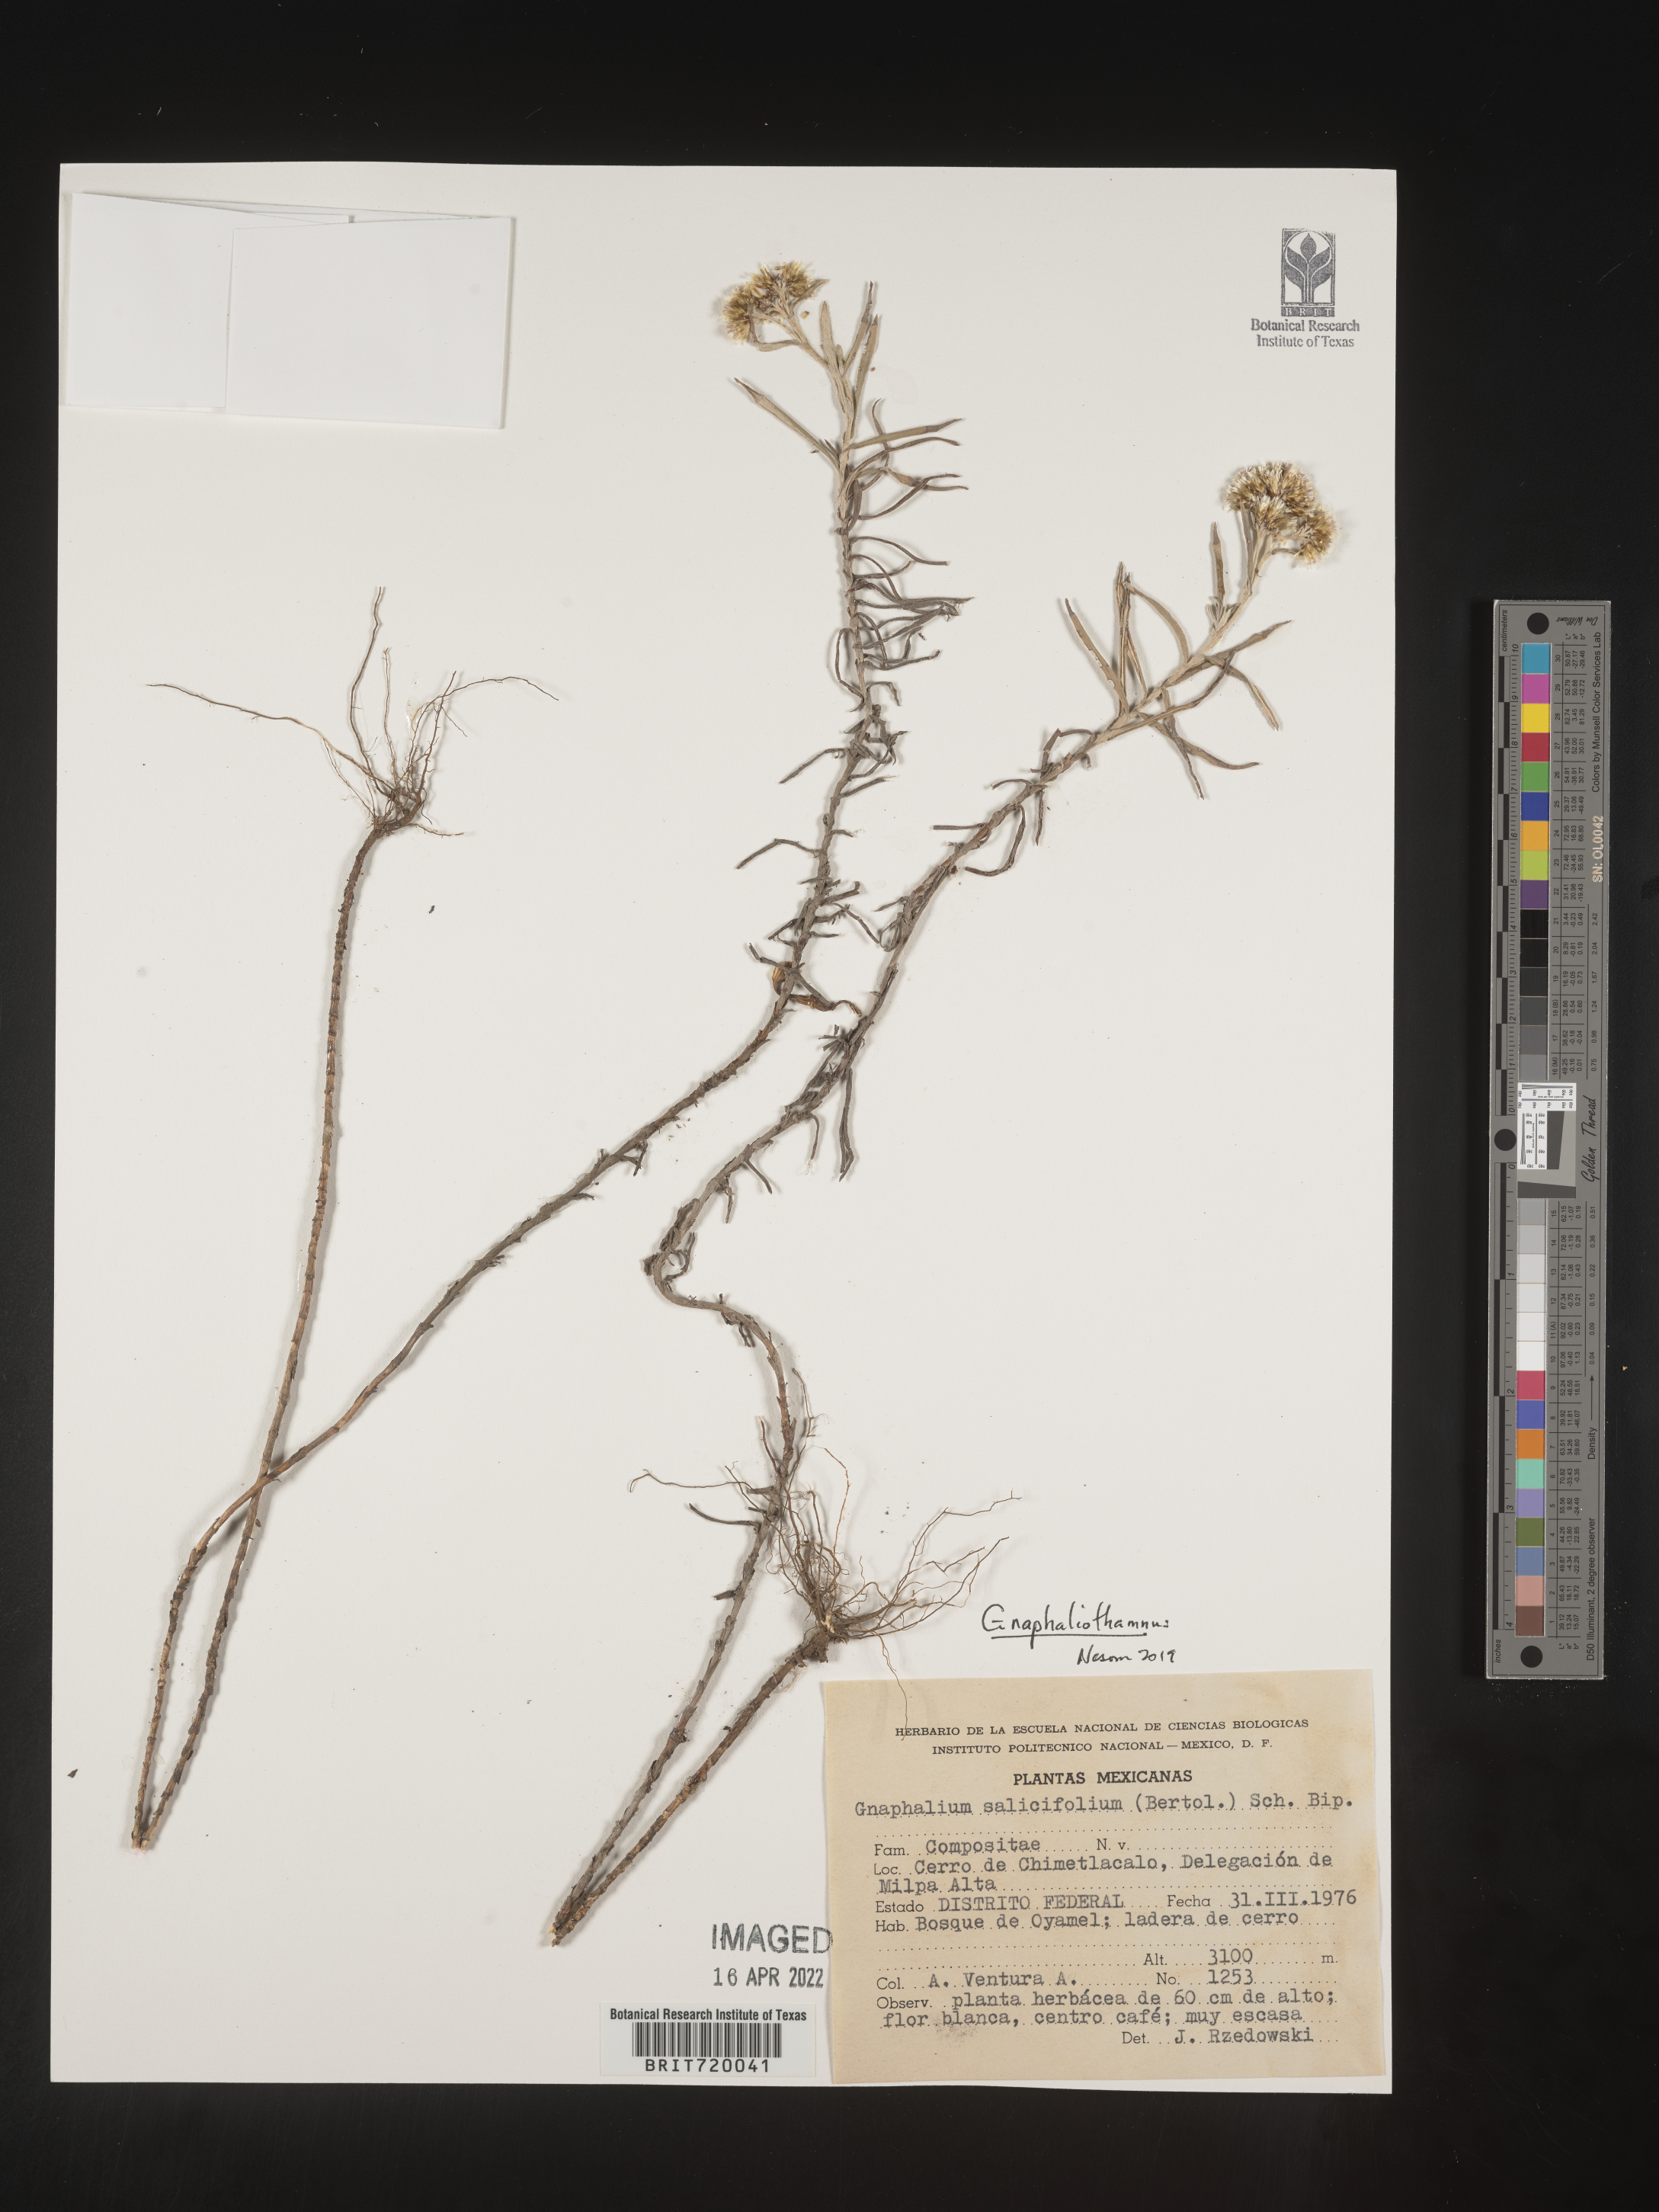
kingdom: Plantae
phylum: Tracheophyta
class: Magnoliopsida
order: Asterales
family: Asteraceae
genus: Gnaphaliothamnus
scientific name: Gnaphaliothamnus
